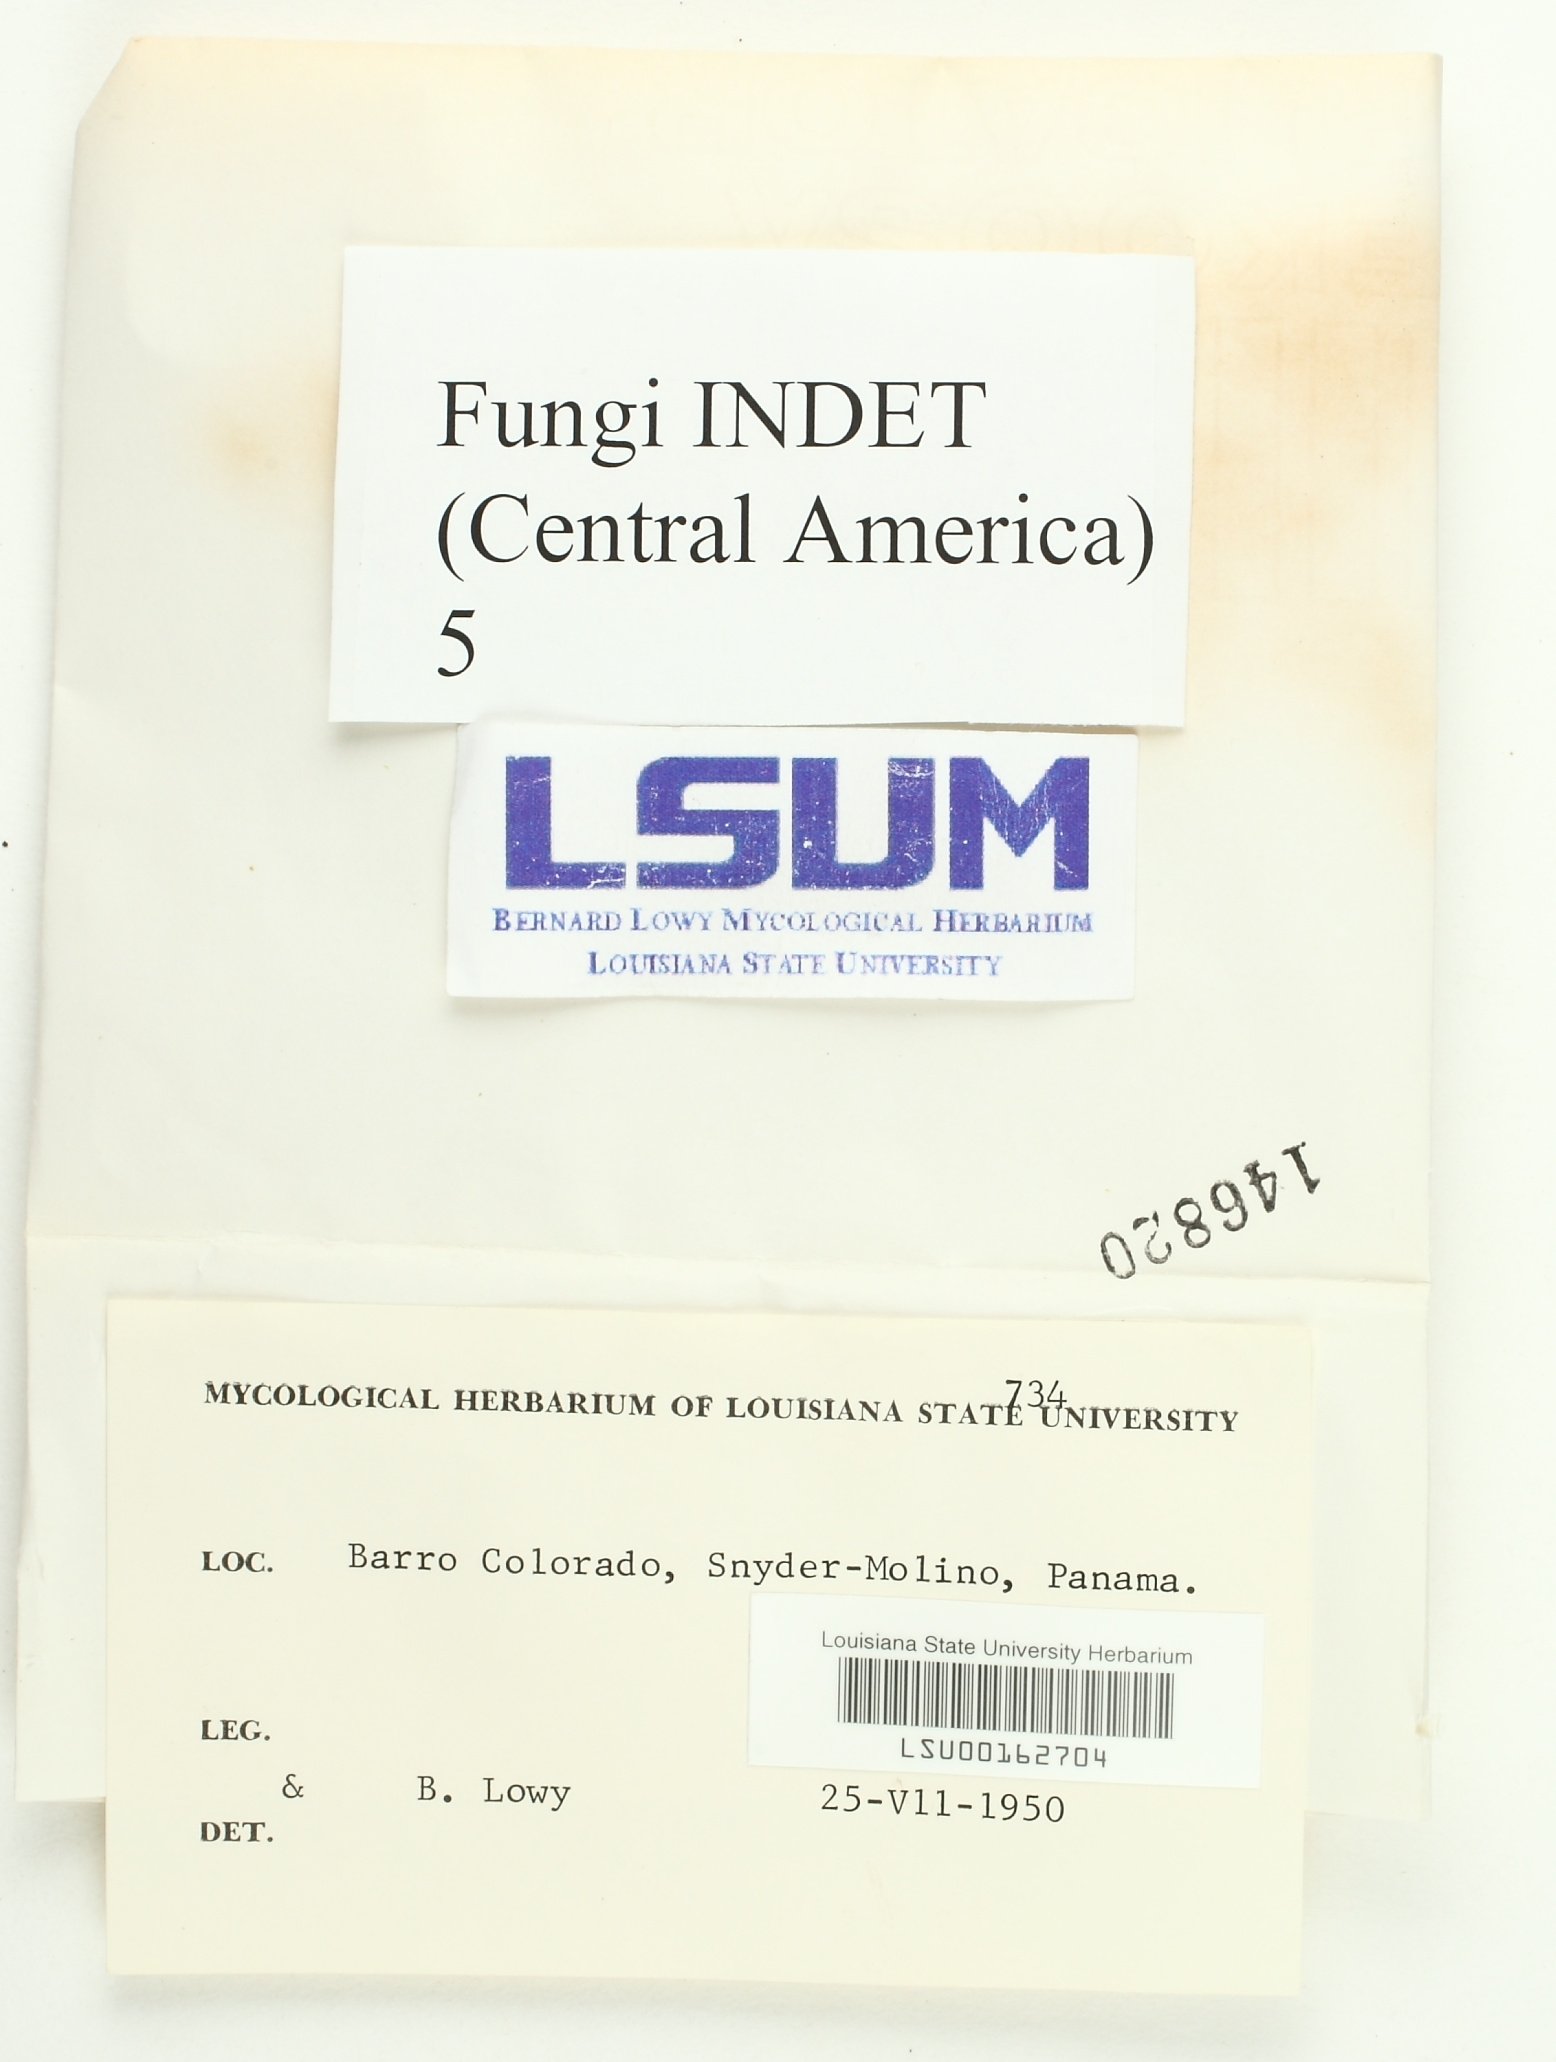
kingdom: Fungi
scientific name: Fungi
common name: Fungi
